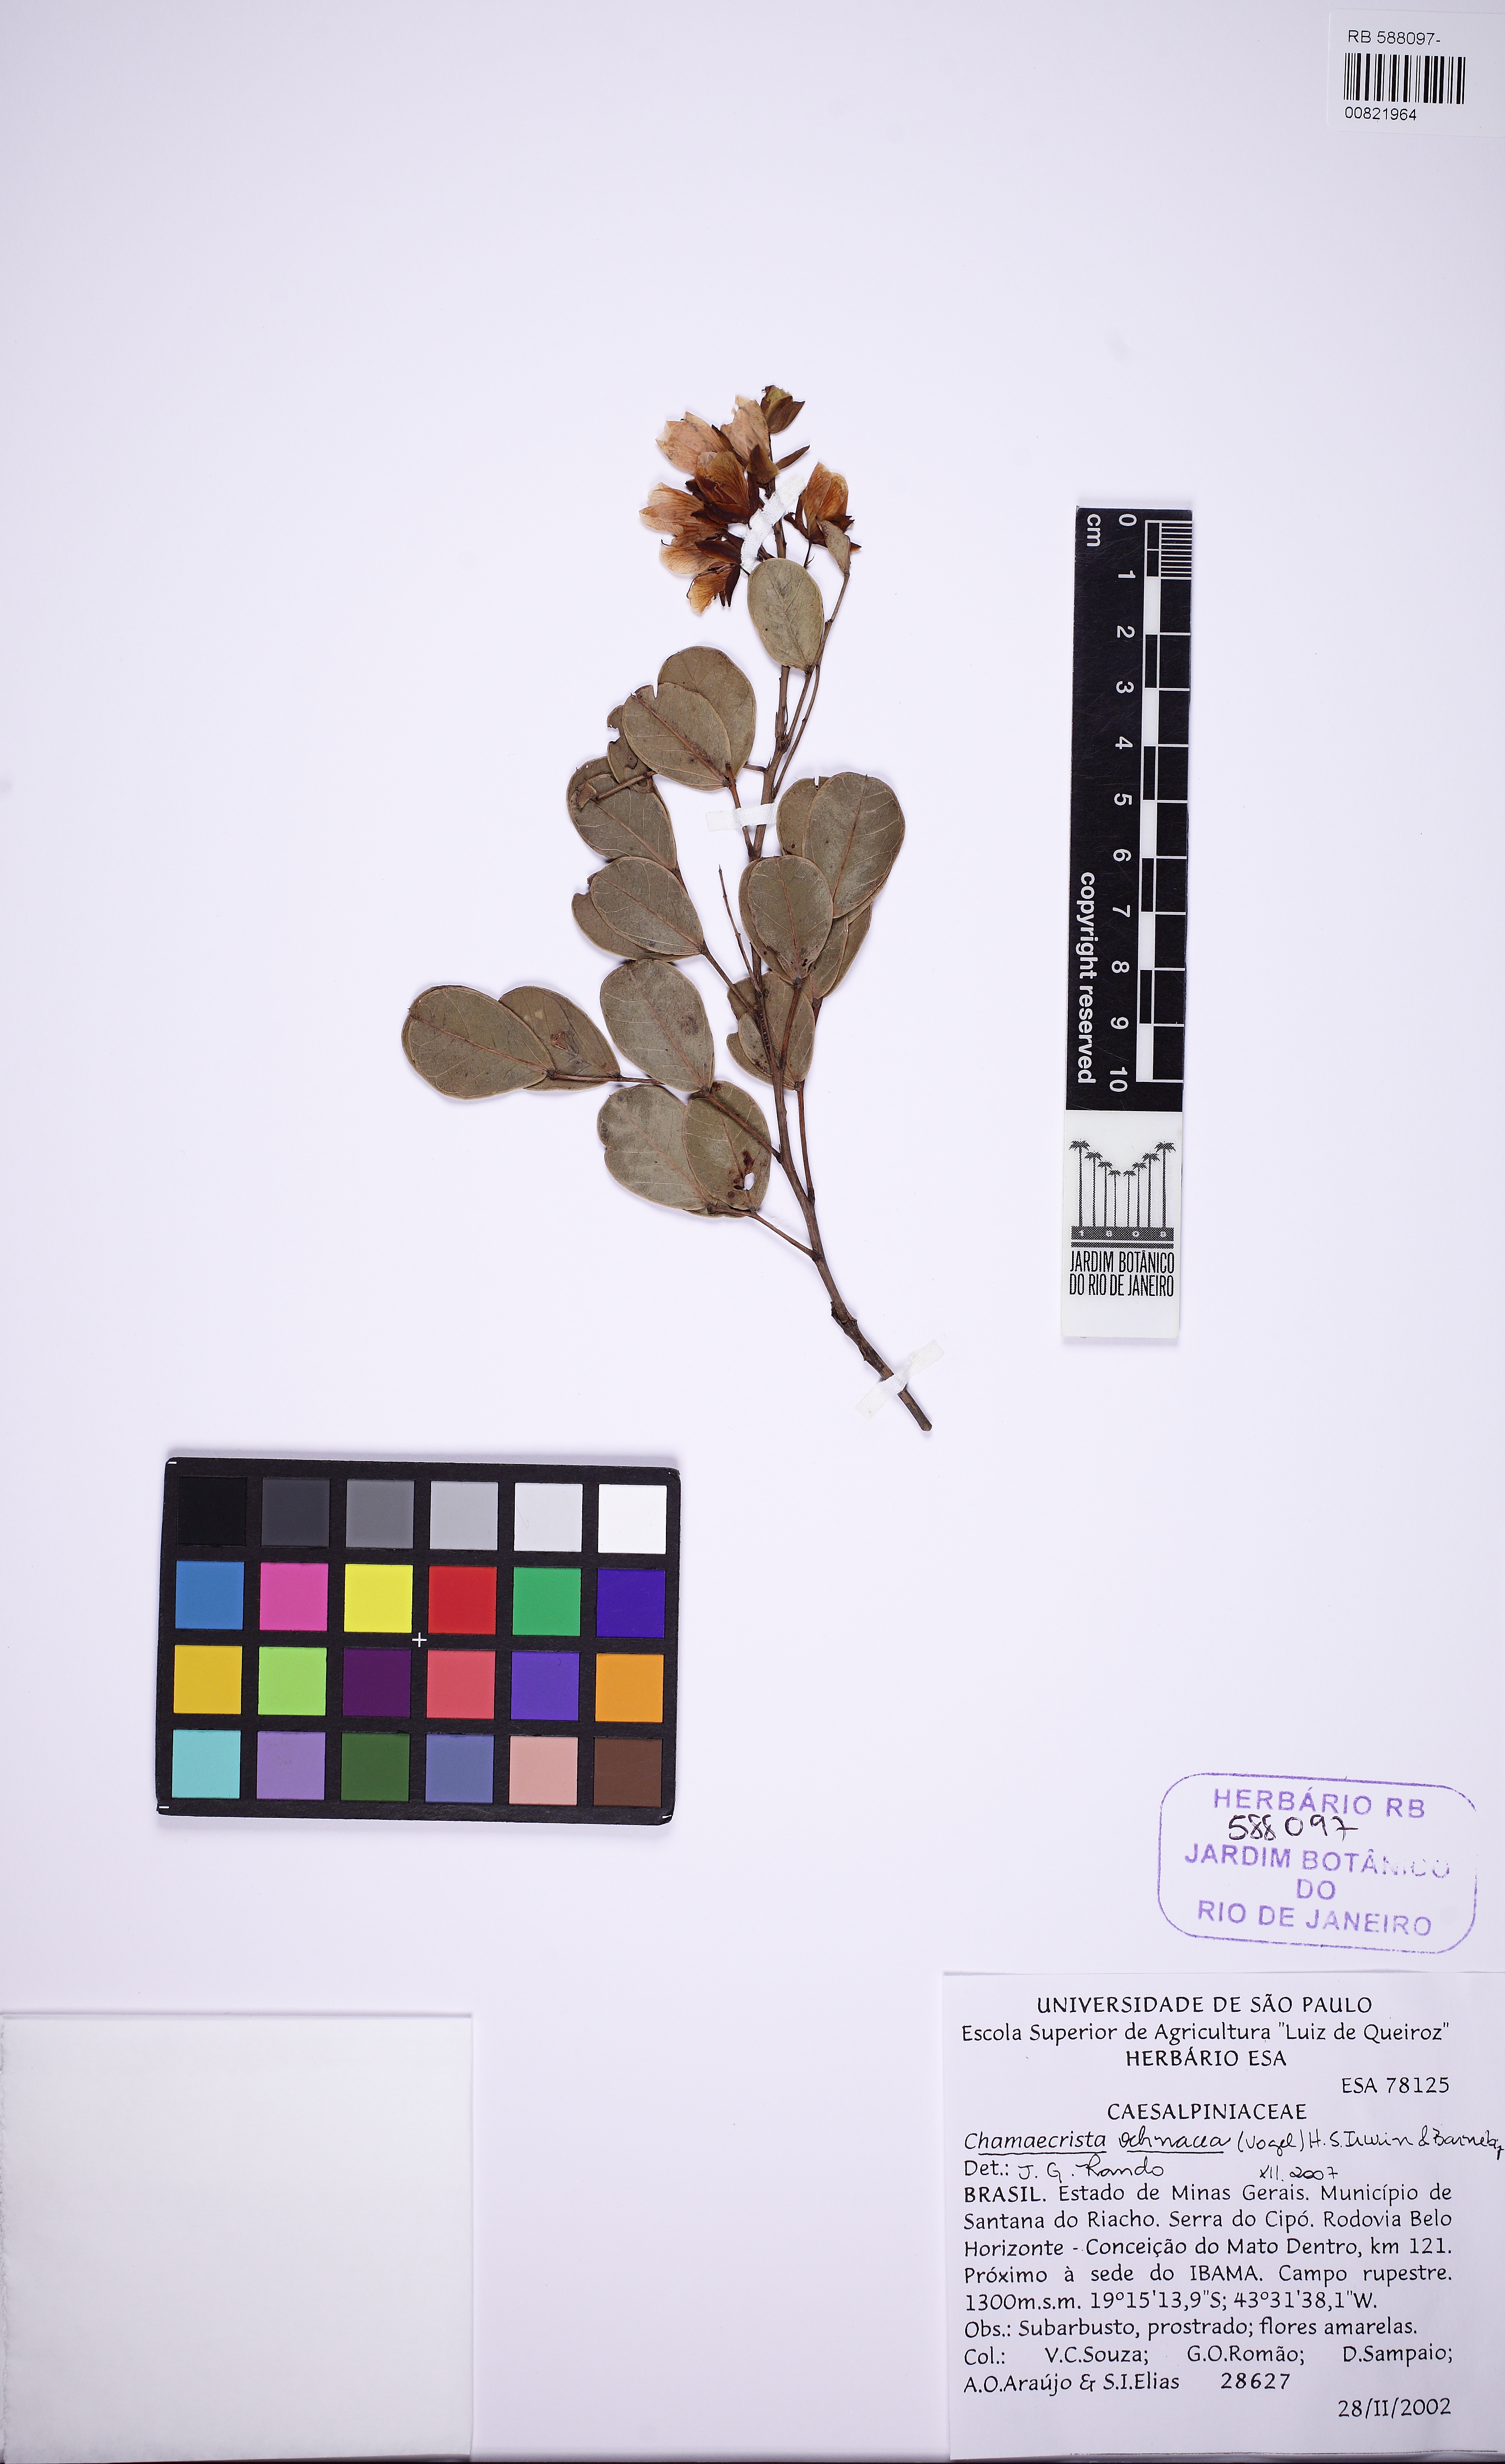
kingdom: Plantae
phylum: Tracheophyta
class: Magnoliopsida
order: Fabales
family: Fabaceae
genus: Chamaecrista
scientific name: Chamaecrista ochnacea
